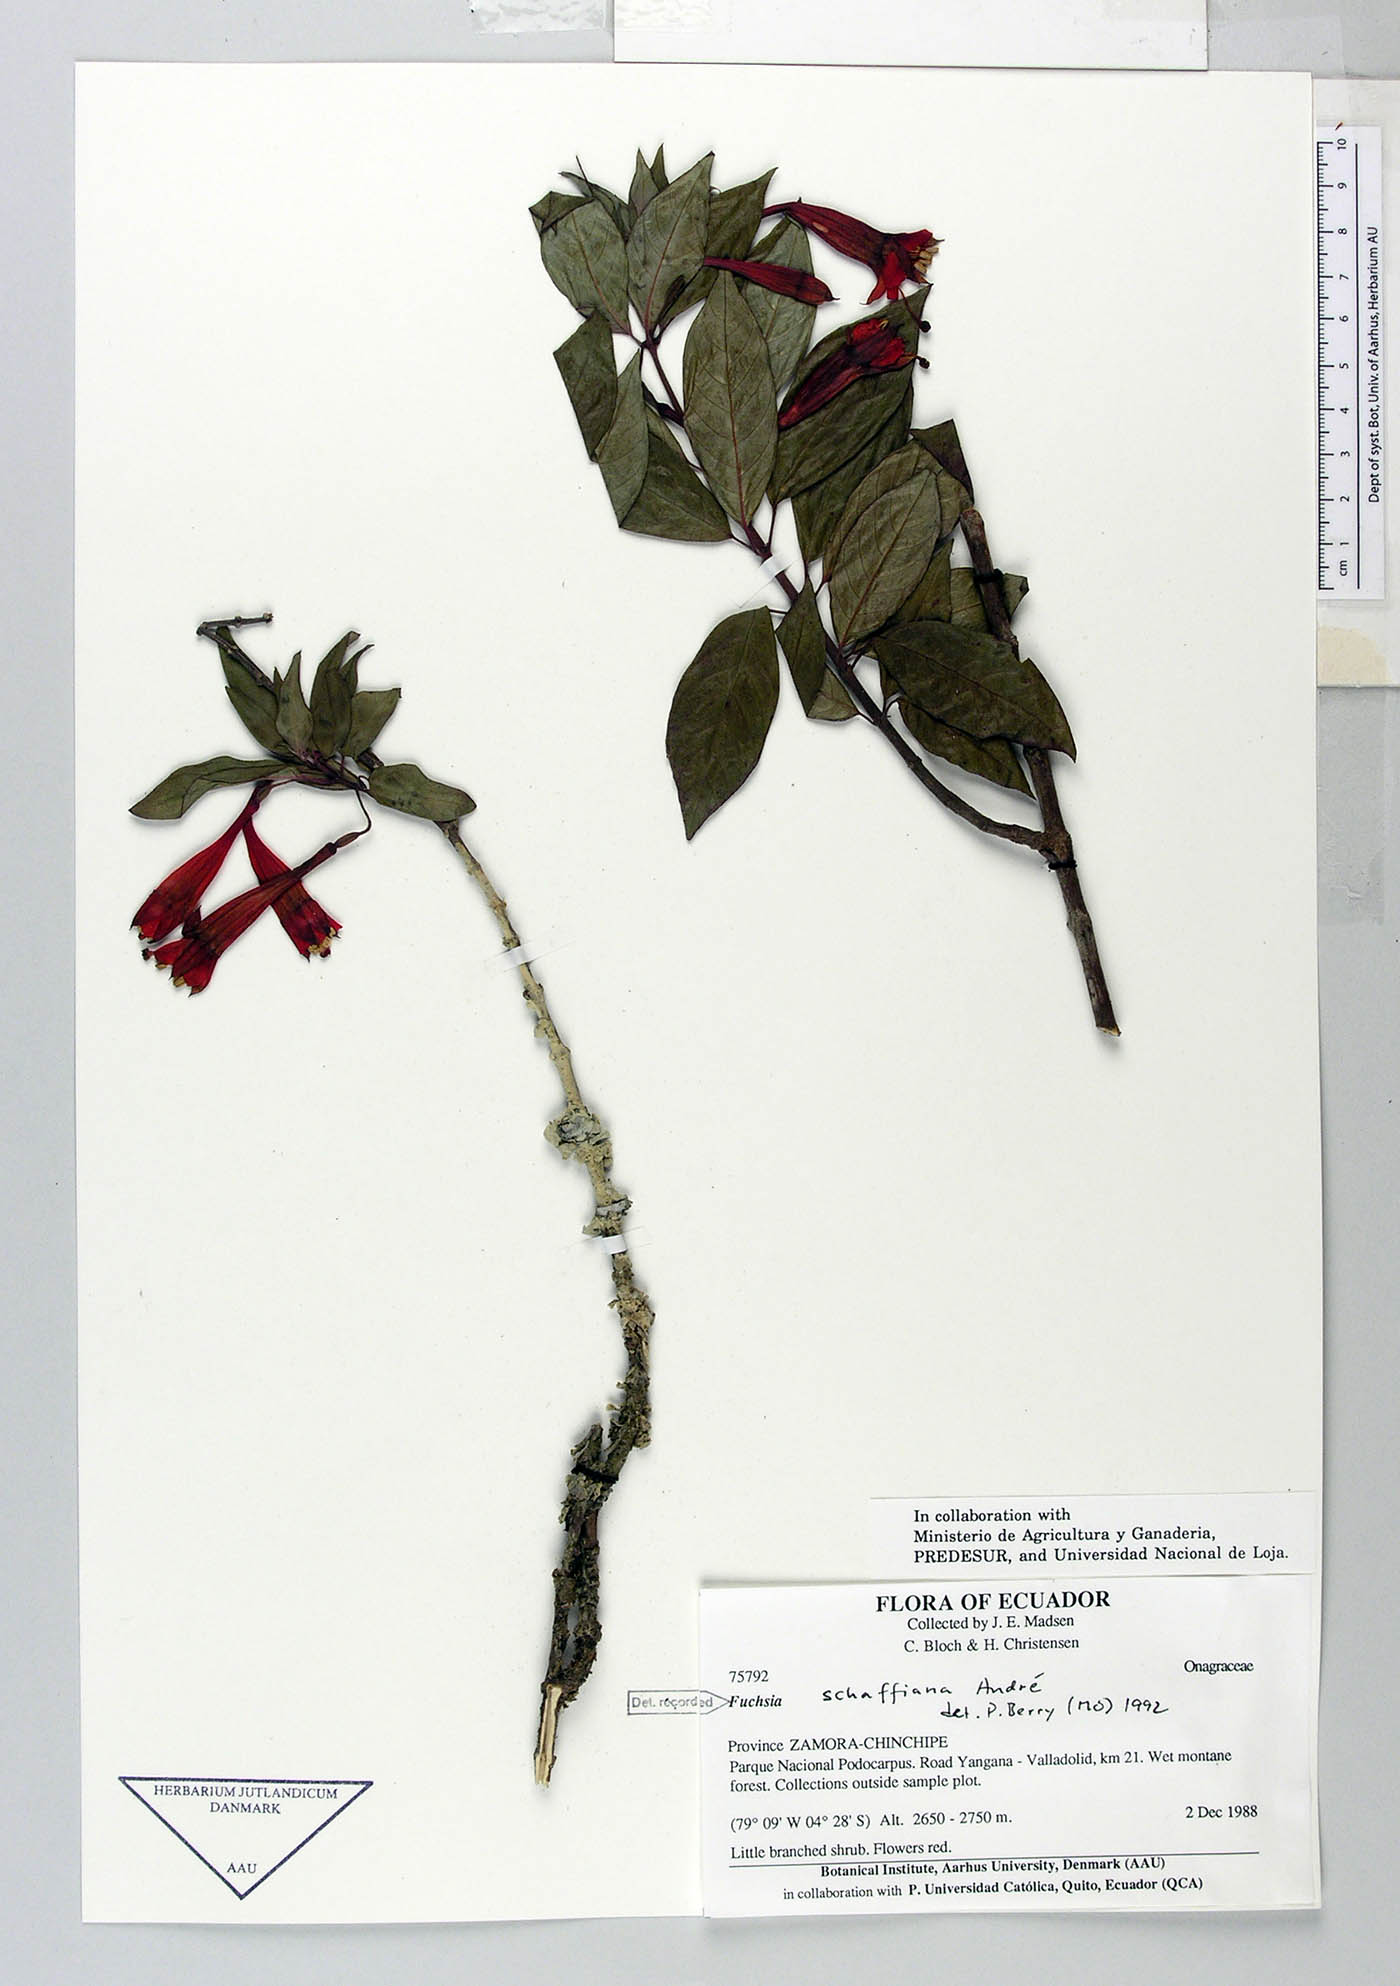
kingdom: Plantae
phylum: Tracheophyta
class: Magnoliopsida
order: Myrtales
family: Onagraceae
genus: Fuchsia
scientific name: Fuchsia scherffiana
